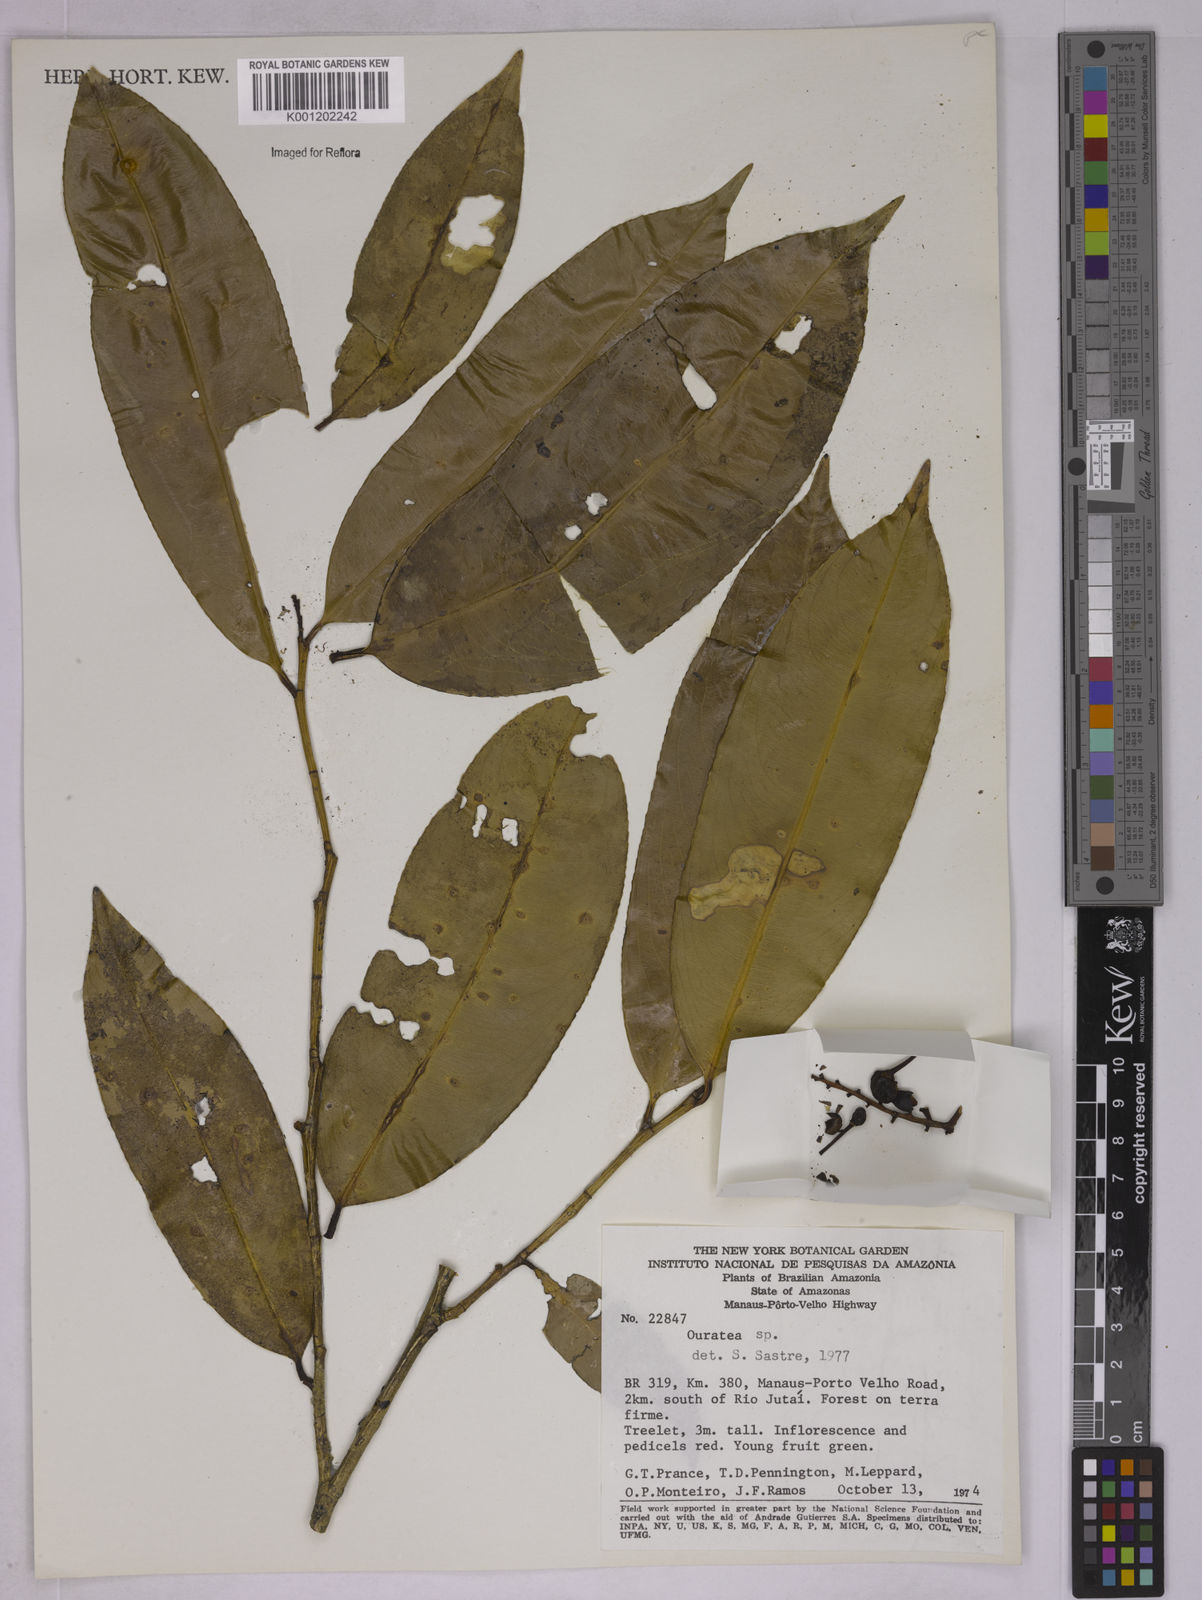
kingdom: Plantae
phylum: Tracheophyta
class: Magnoliopsida
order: Malpighiales
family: Ochnaceae
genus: Ouratea
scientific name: Ouratea
